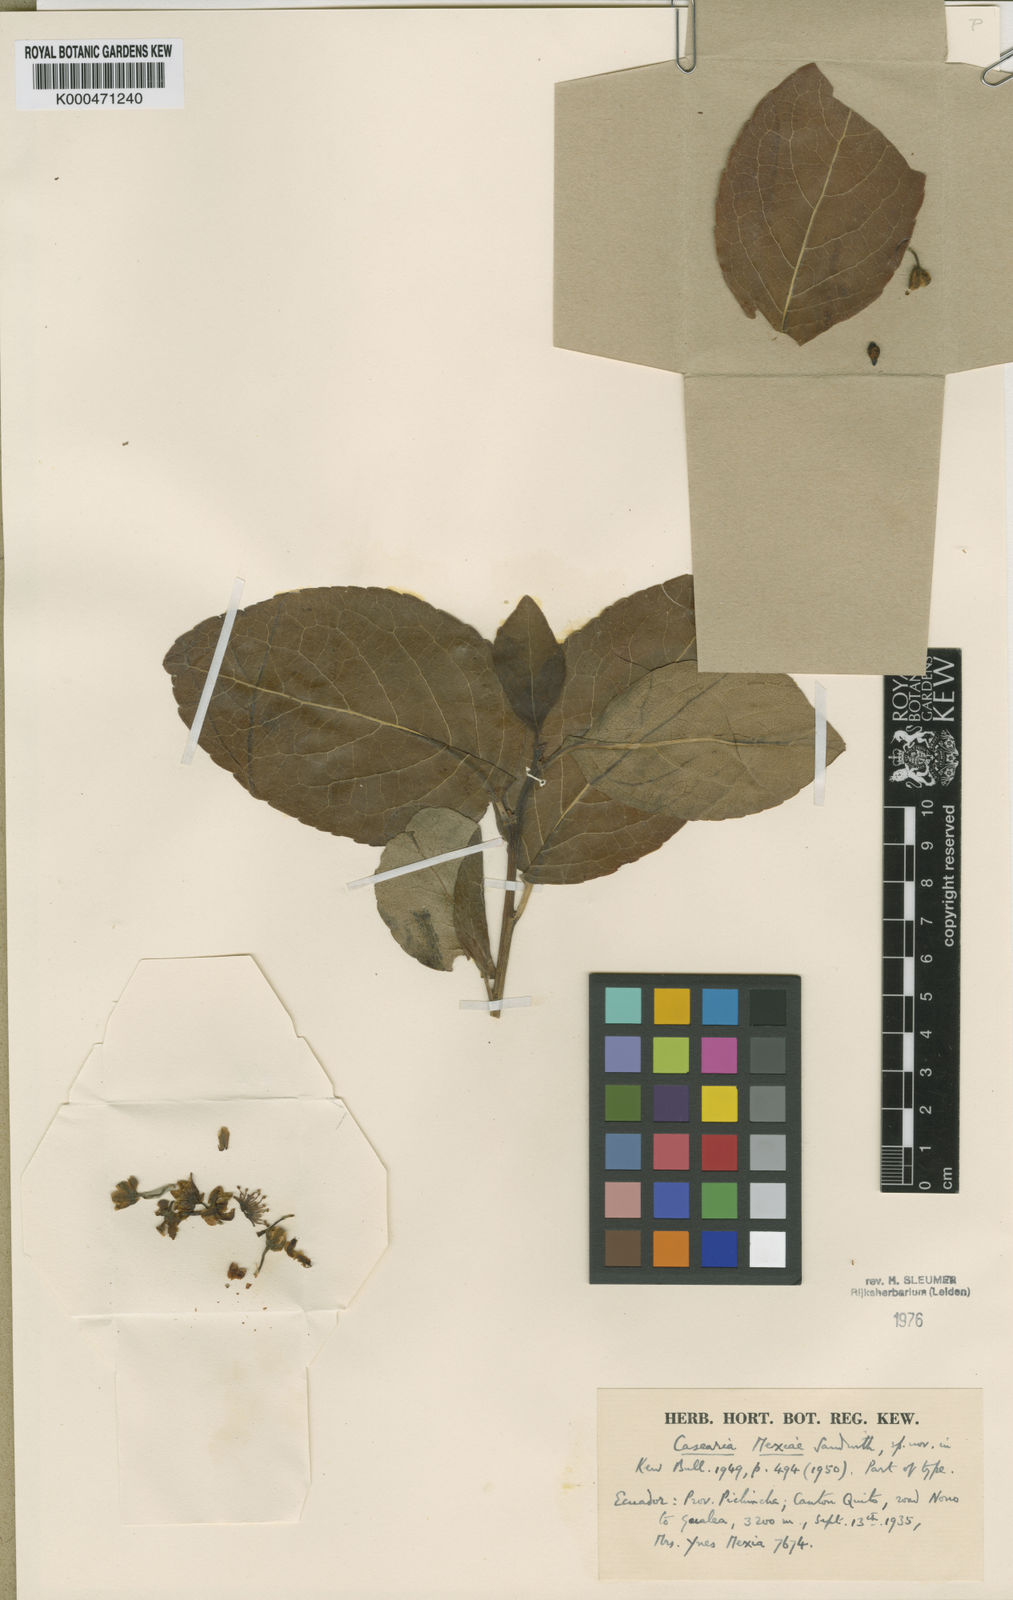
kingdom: Plantae
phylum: Tracheophyta
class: Magnoliopsida
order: Malpighiales
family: Salicaceae
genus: Casearia
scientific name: Casearia mexiae
